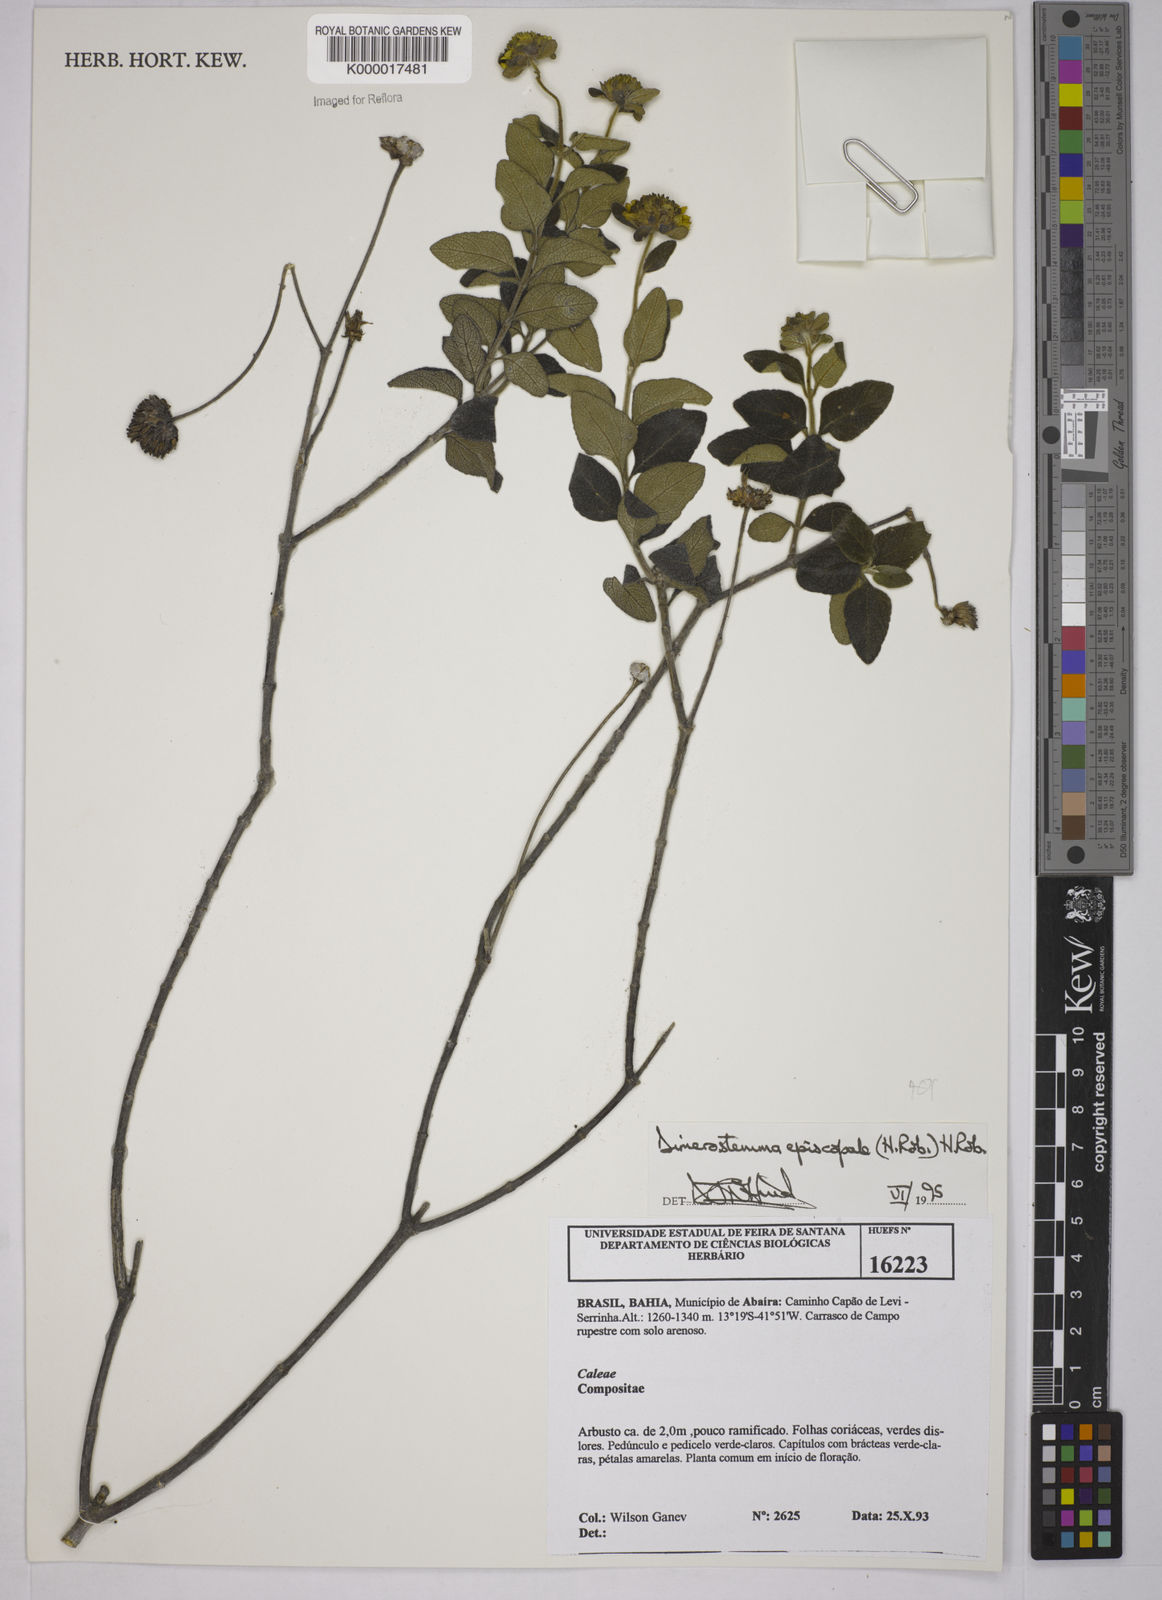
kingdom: Plantae
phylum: Tracheophyta
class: Magnoliopsida
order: Asterales
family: Asteraceae
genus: Dimerostemma
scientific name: Dimerostemma episcopale
